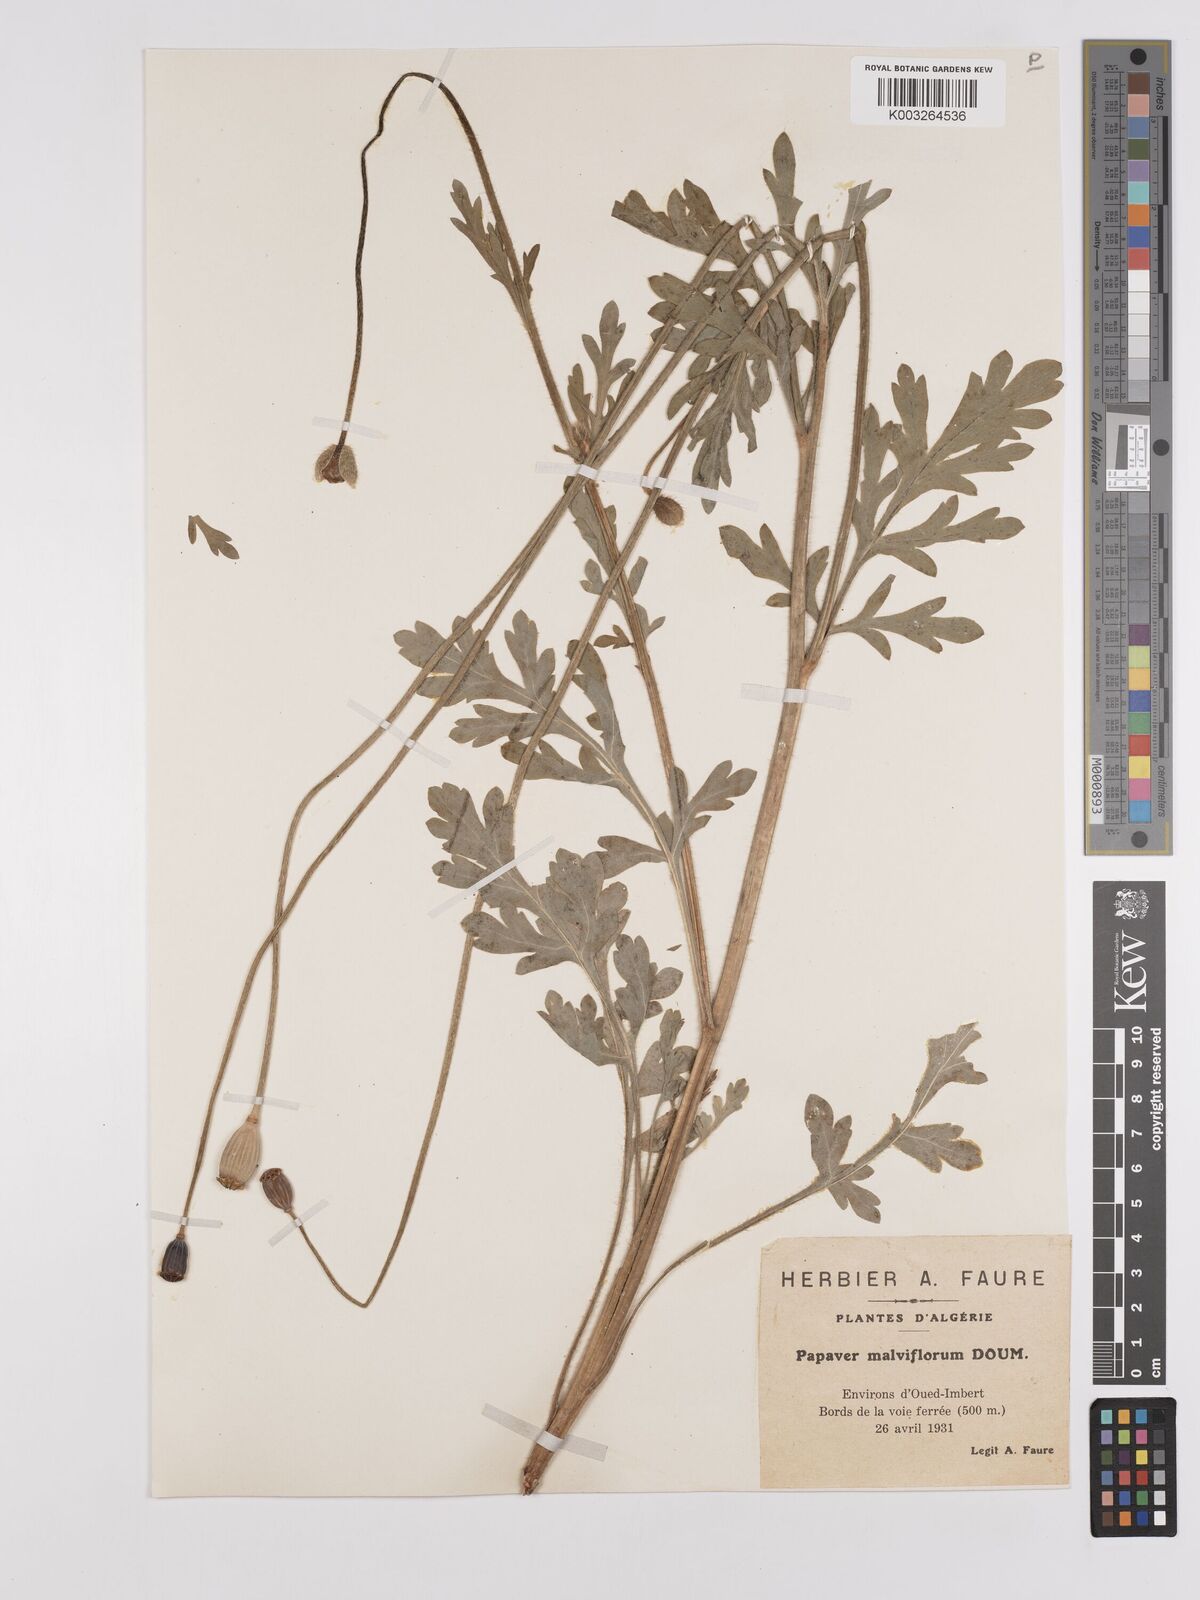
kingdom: Plantae
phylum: Tracheophyta
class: Magnoliopsida
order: Ranunculales
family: Papaveraceae
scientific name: Papaveraceae
